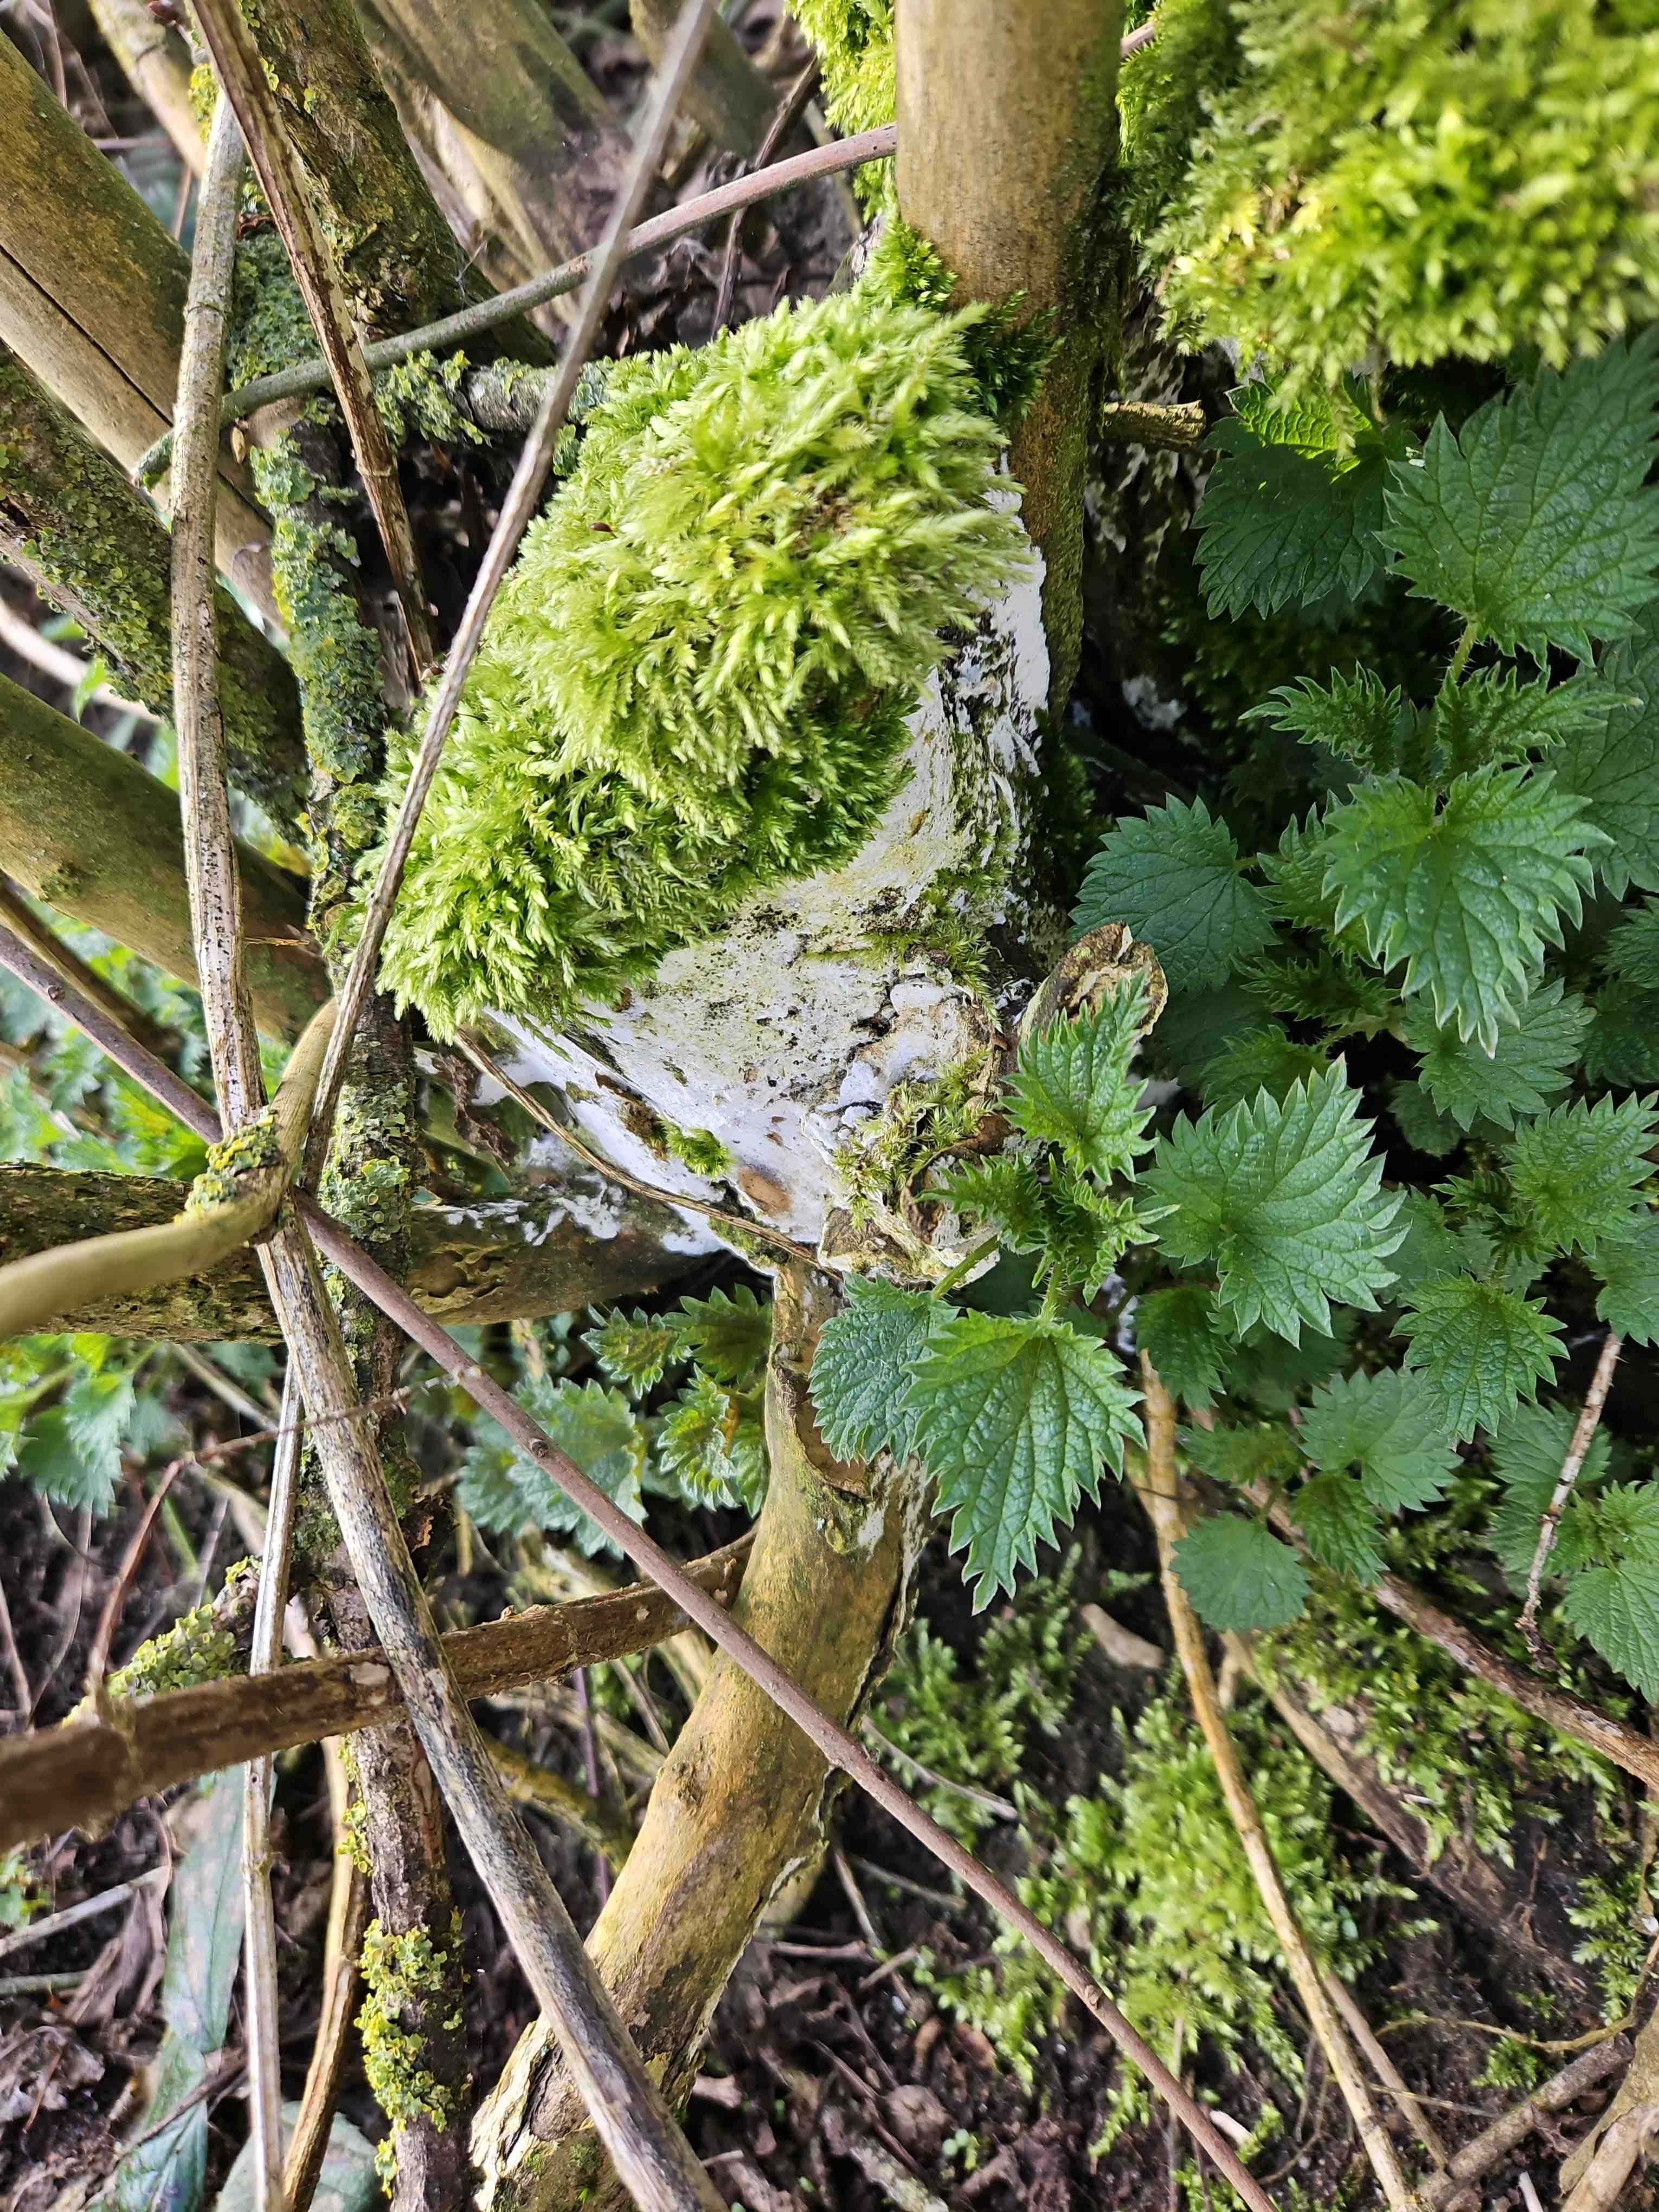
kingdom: Fungi
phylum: Basidiomycota
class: Agaricomycetes
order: Corticiales
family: Corticiaceae
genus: Lyomyces
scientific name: Lyomyces sambuci
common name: almindelig hyldehinde
